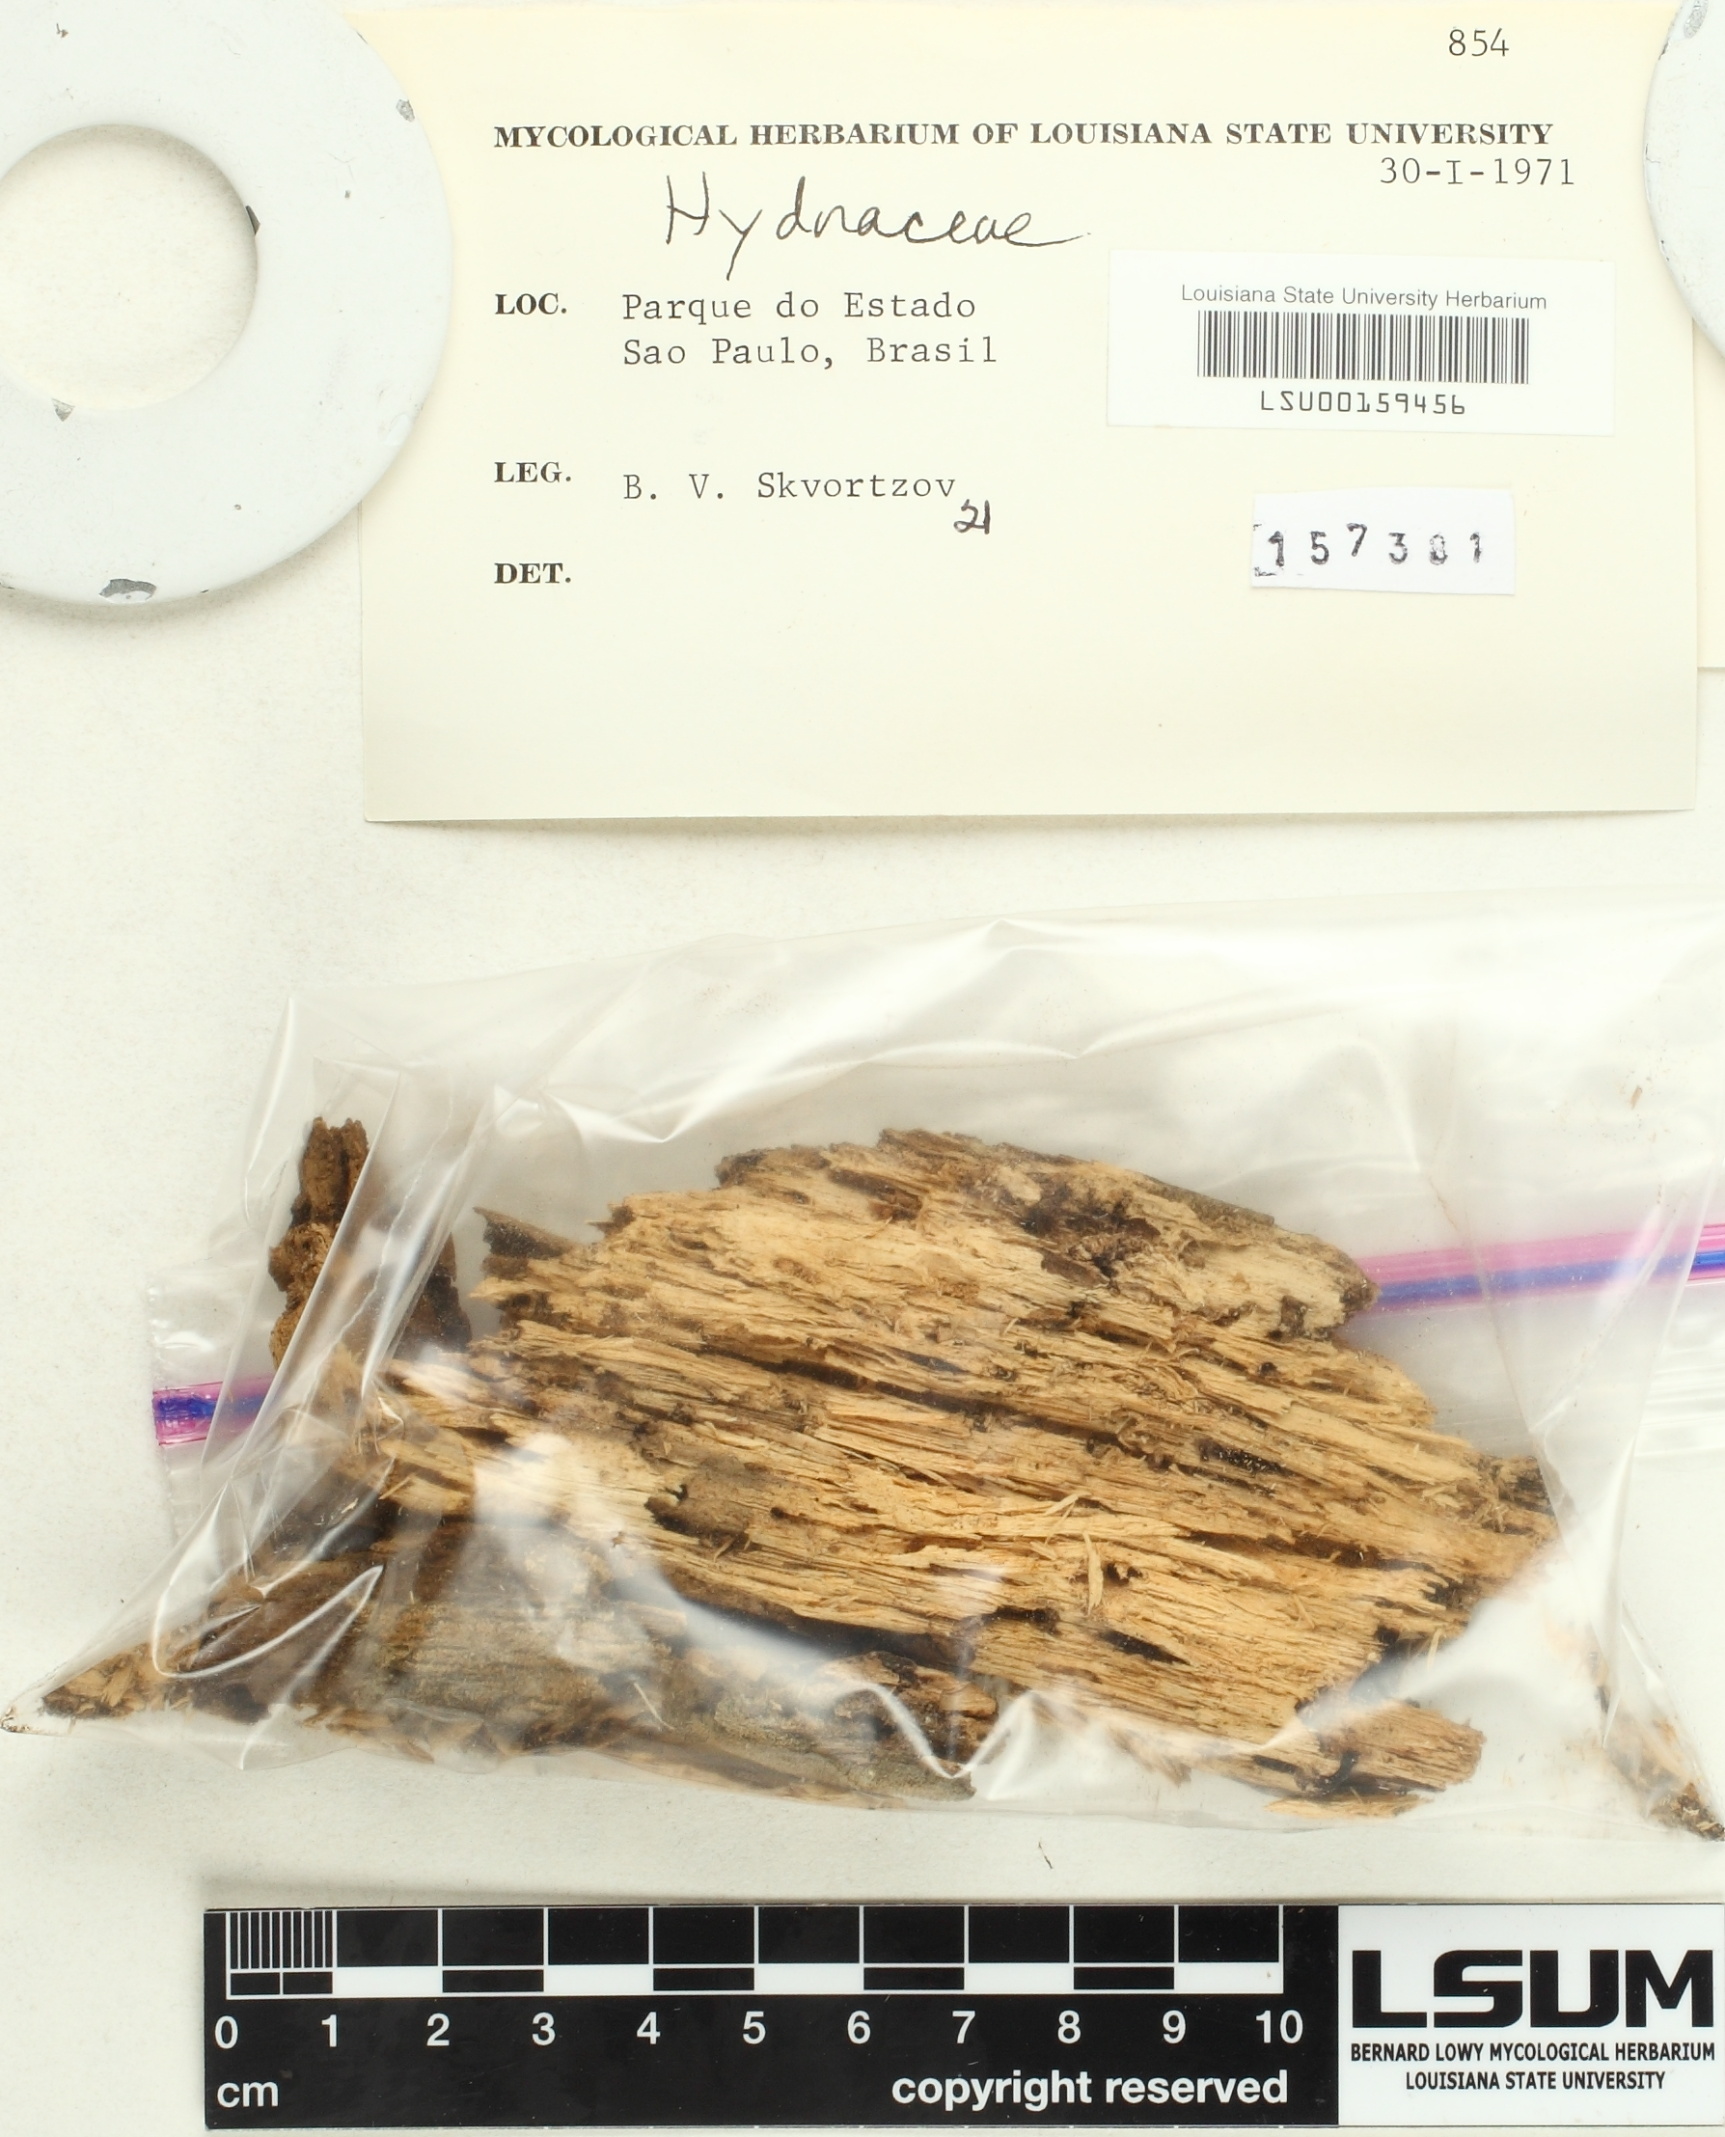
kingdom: Fungi
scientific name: Fungi
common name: Fungi
